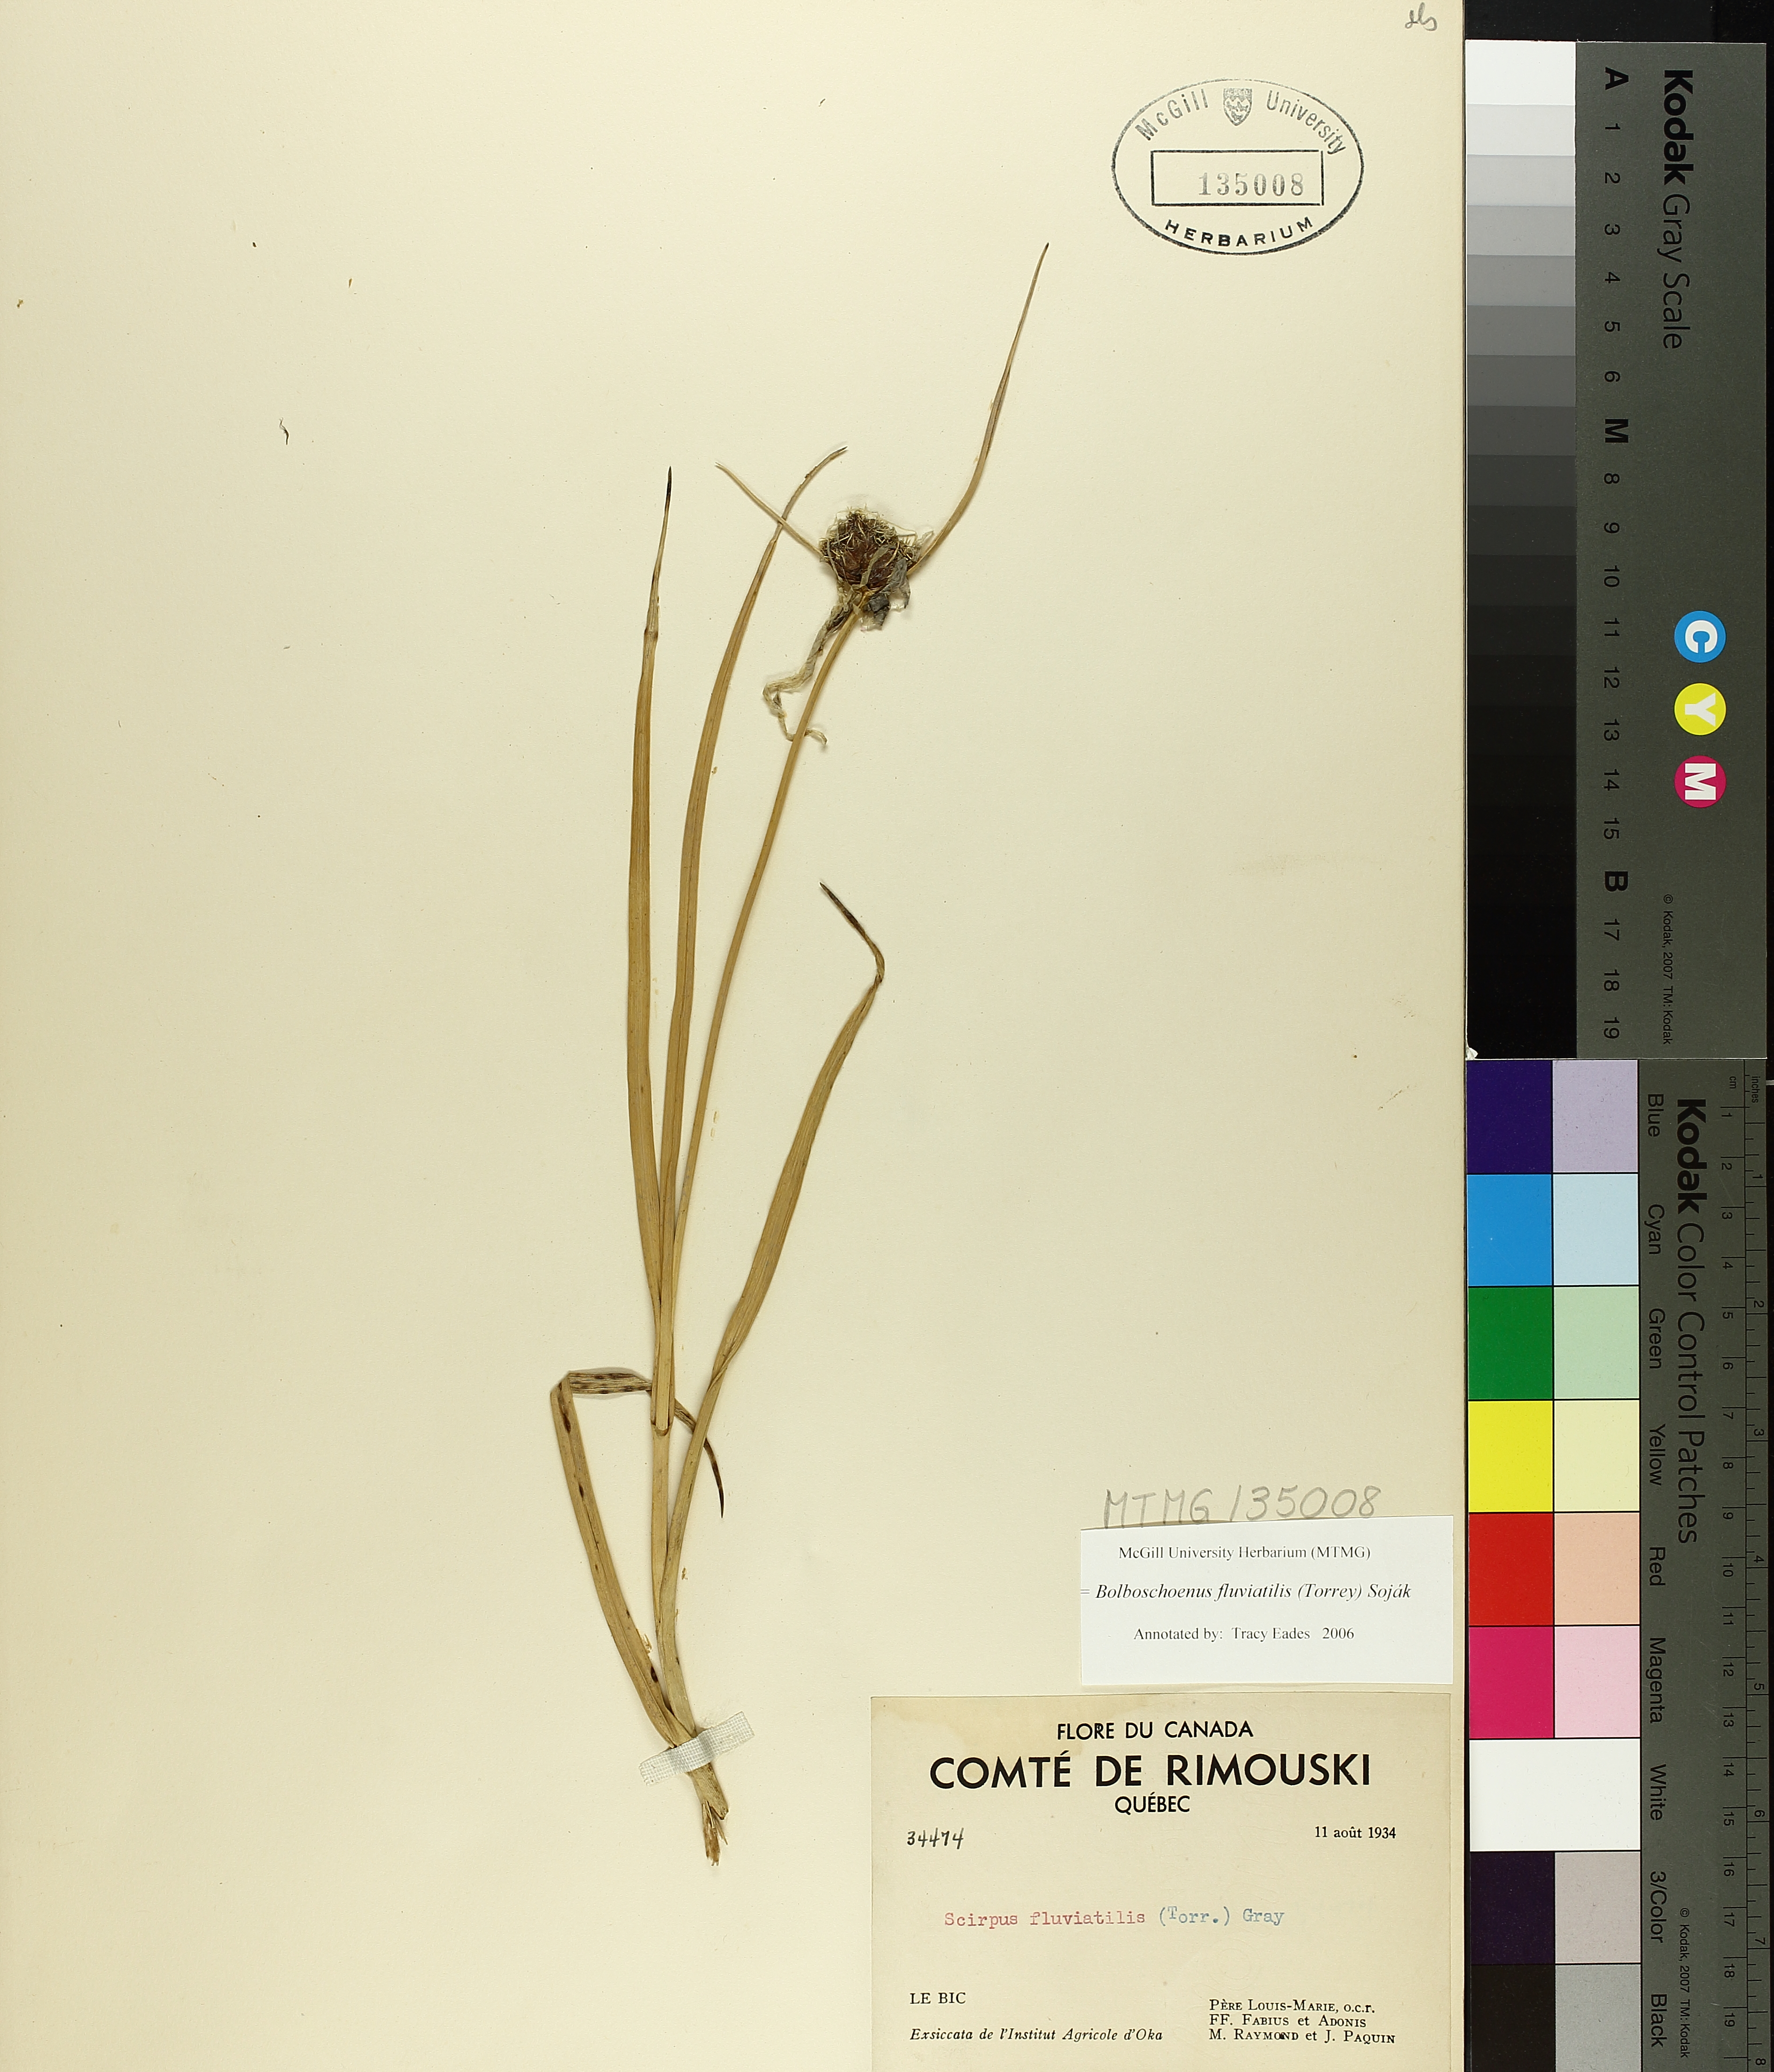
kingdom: Plantae
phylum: Tracheophyta
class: Liliopsida
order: Poales
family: Cyperaceae
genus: Bolboschoenus
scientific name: Bolboschoenus fluviatilis
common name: River bulrush
